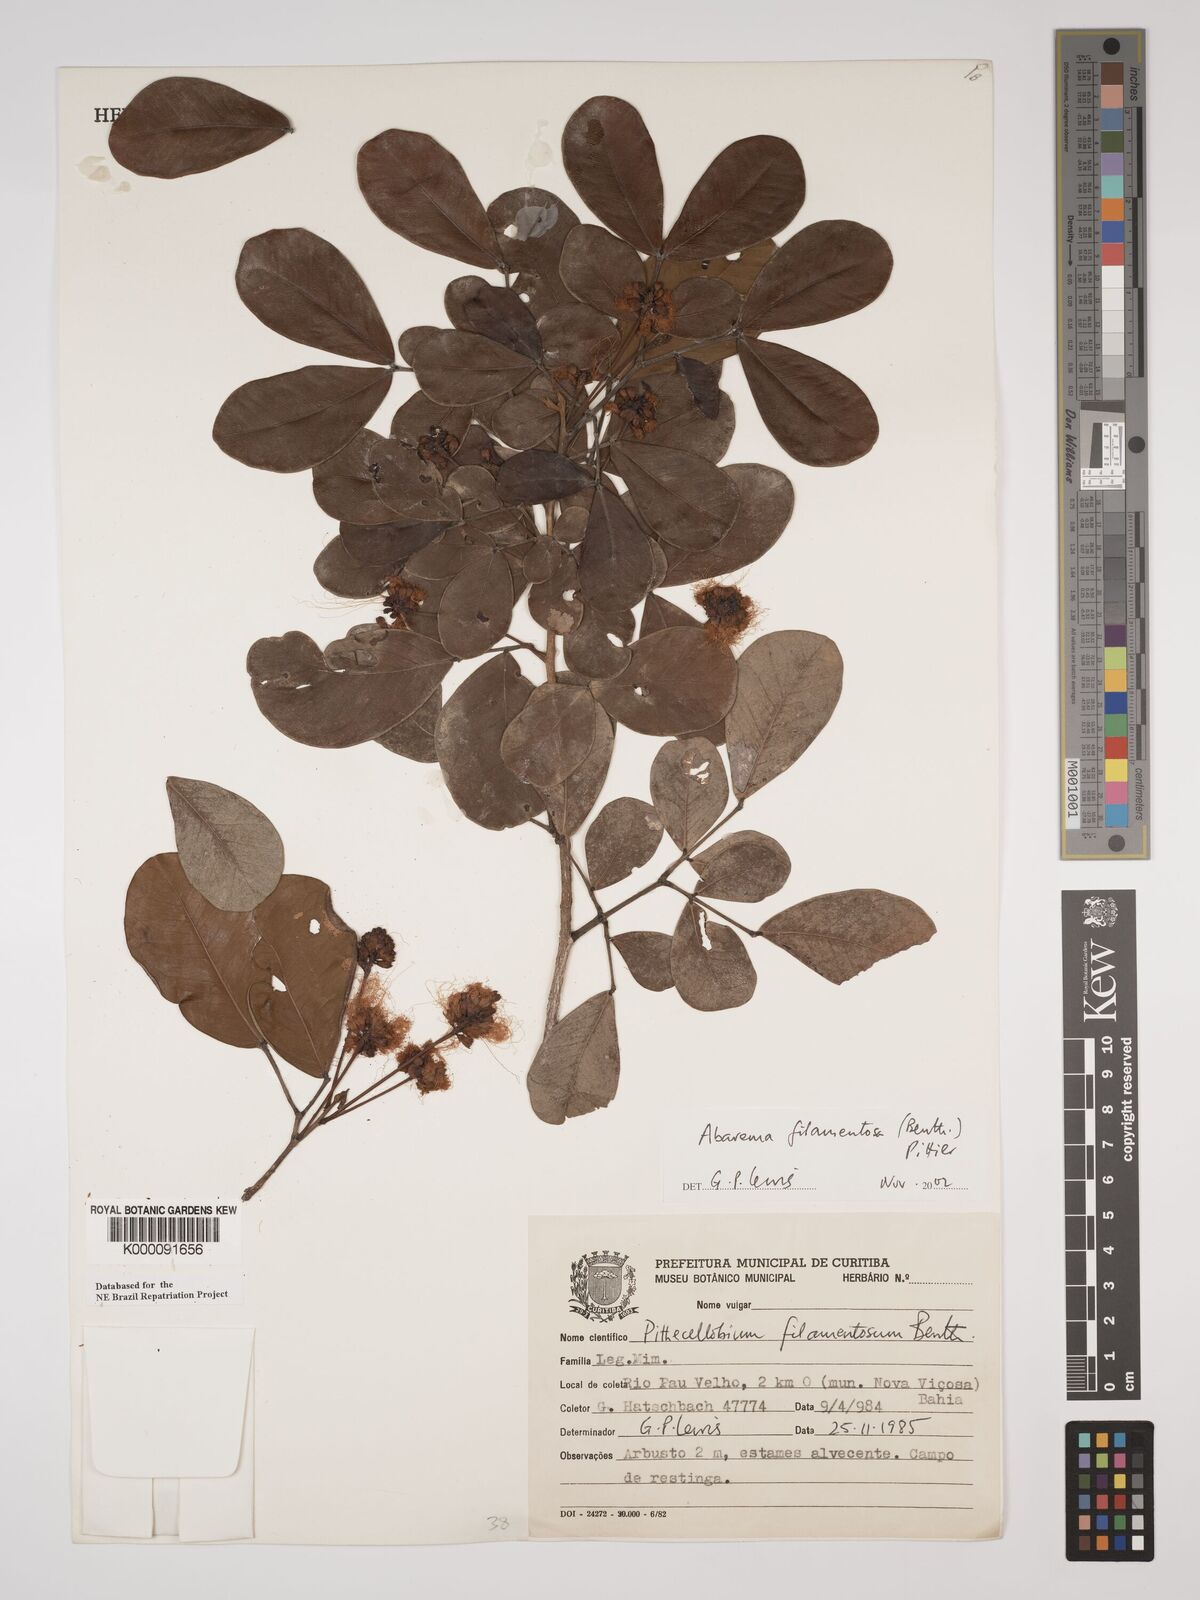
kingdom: Plantae
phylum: Tracheophyta
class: Magnoliopsida
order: Fabales
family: Fabaceae
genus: Jupunba
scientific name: Jupunba filamentosa
